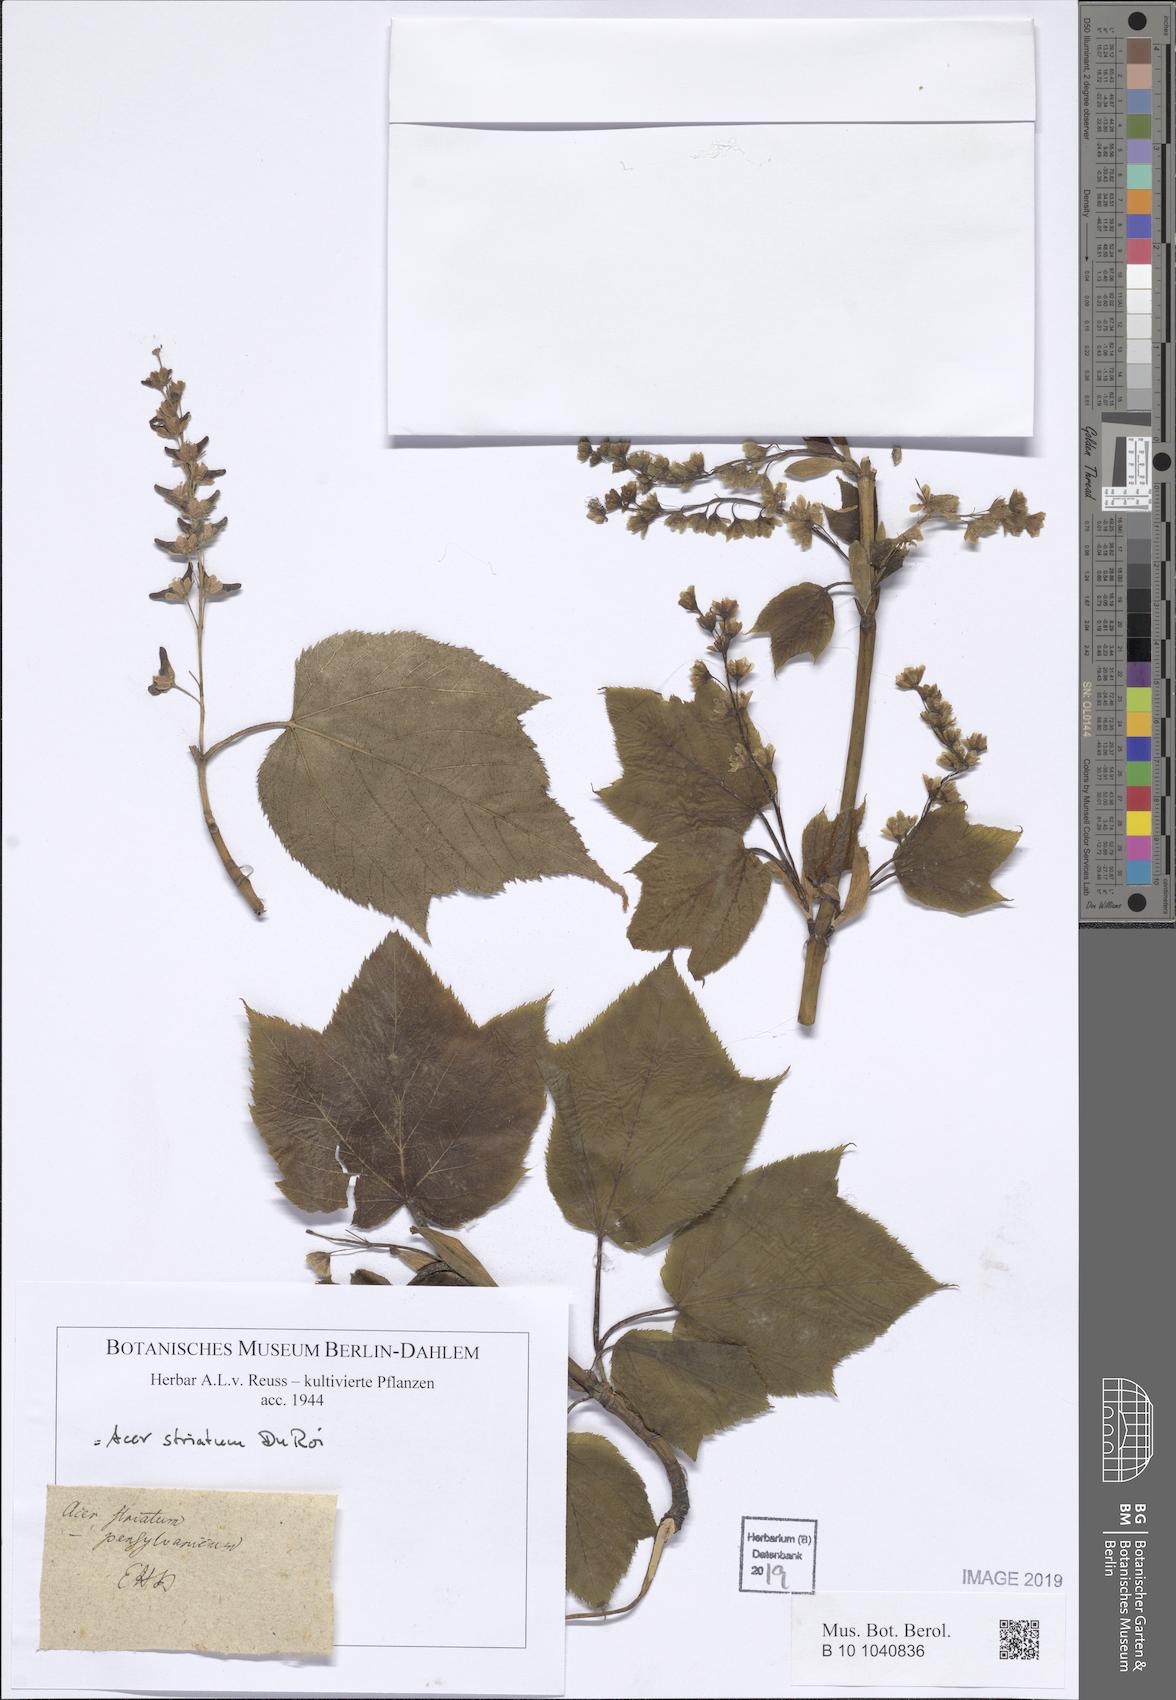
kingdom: Plantae
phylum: Tracheophyta
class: Magnoliopsida
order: Sapindales
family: Sapindaceae
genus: Acer
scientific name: Acer
